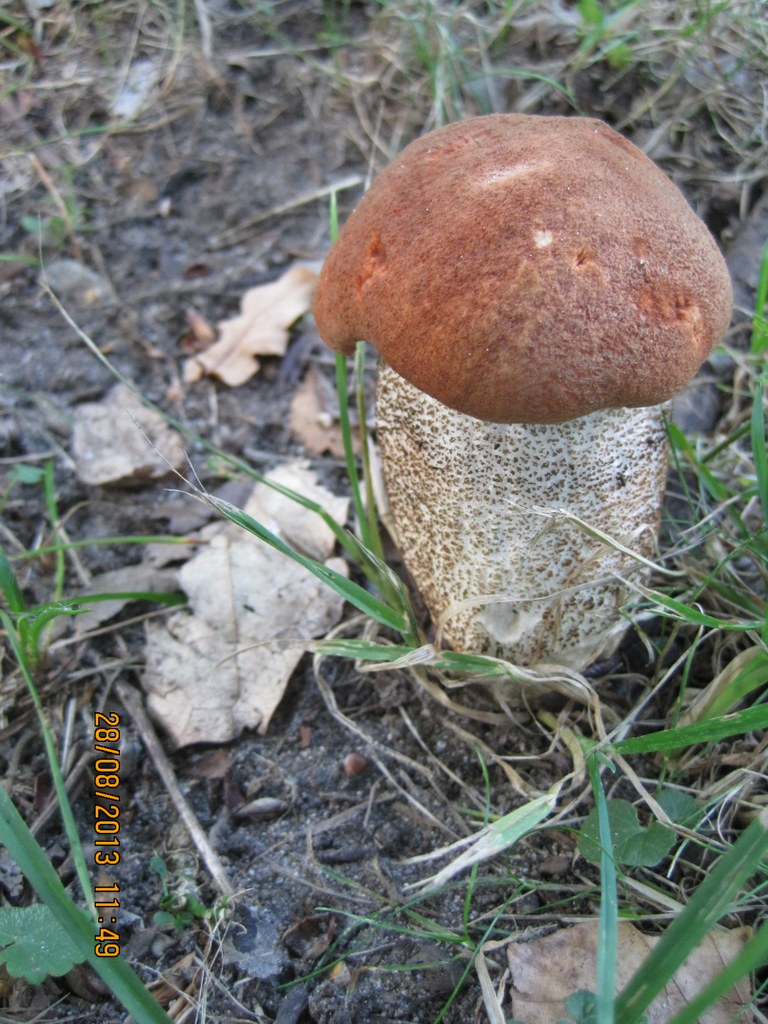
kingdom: Fungi
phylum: Basidiomycota
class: Agaricomycetes
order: Boletales
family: Boletaceae
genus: Leccinum
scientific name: Leccinum aurantiacum
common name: rustrød skælrørhat
